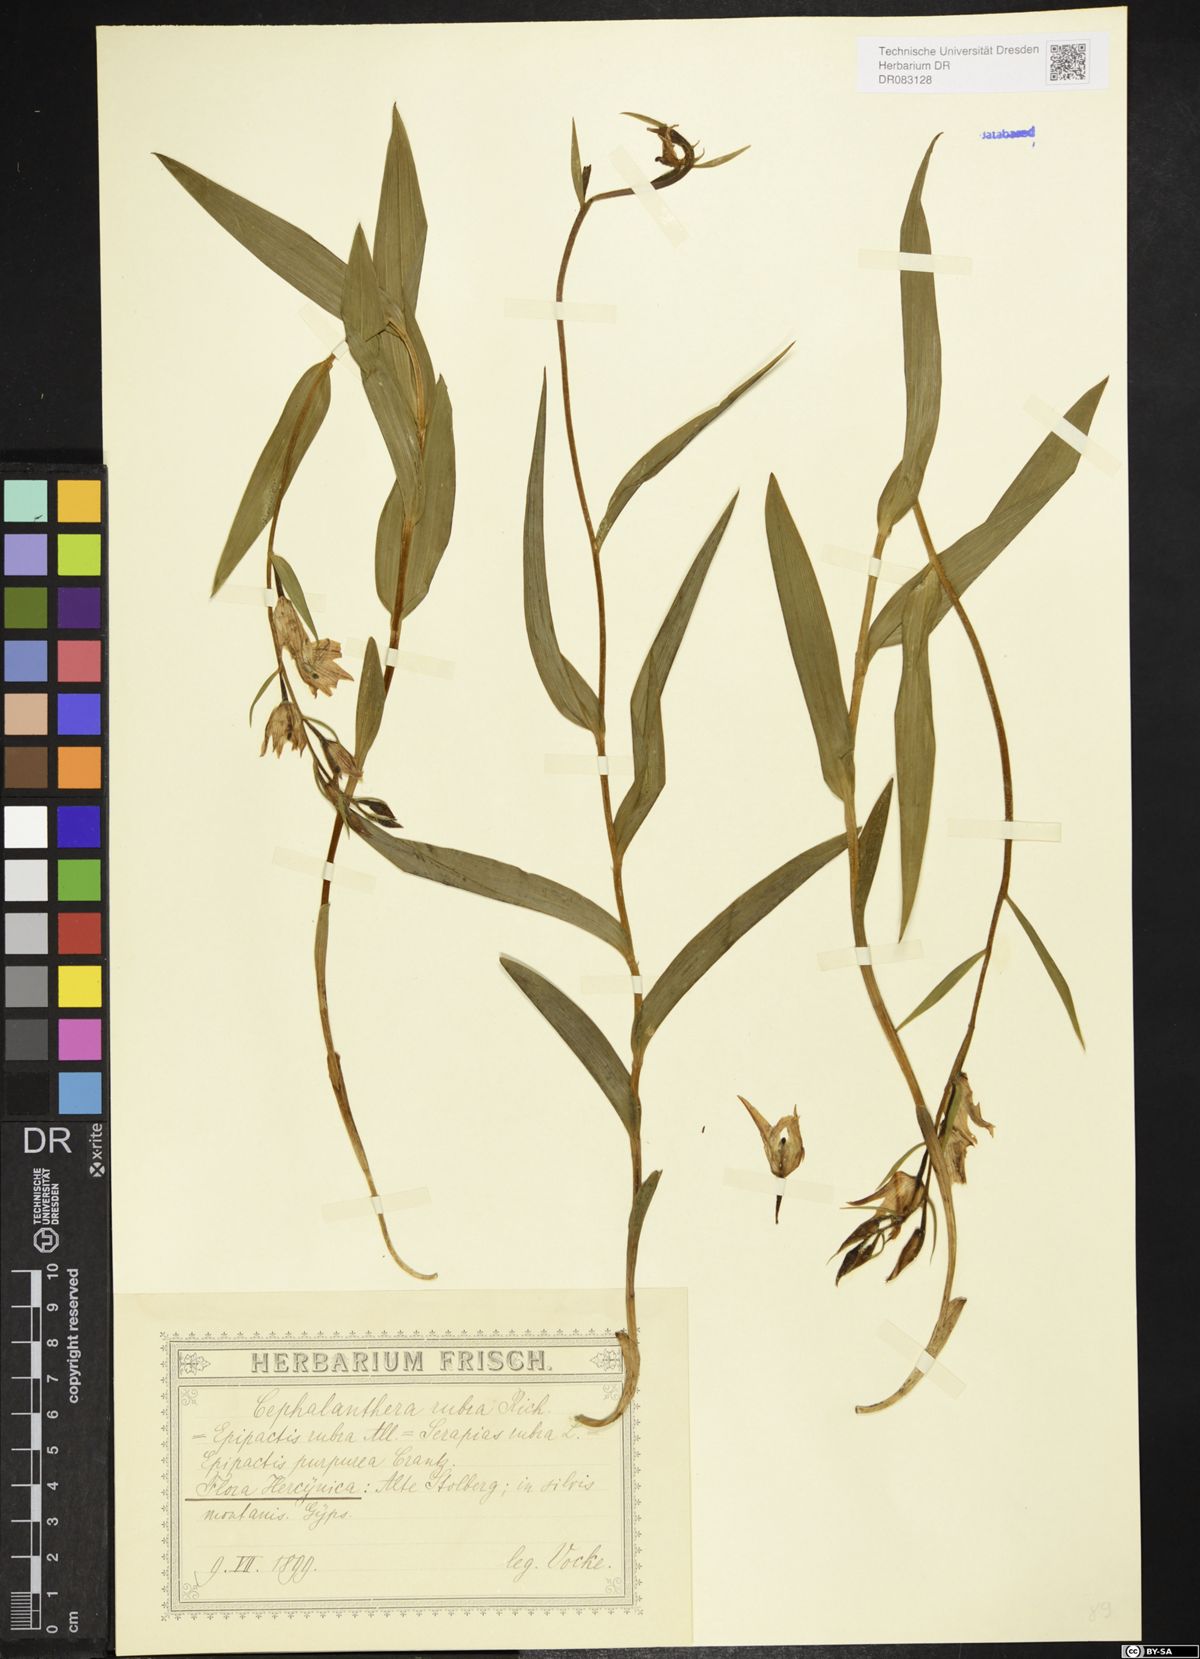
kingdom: Plantae
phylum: Tracheophyta
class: Liliopsida
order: Asparagales
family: Orchidaceae
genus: Cephalanthera
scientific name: Cephalanthera rubra
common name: Red helleborine
